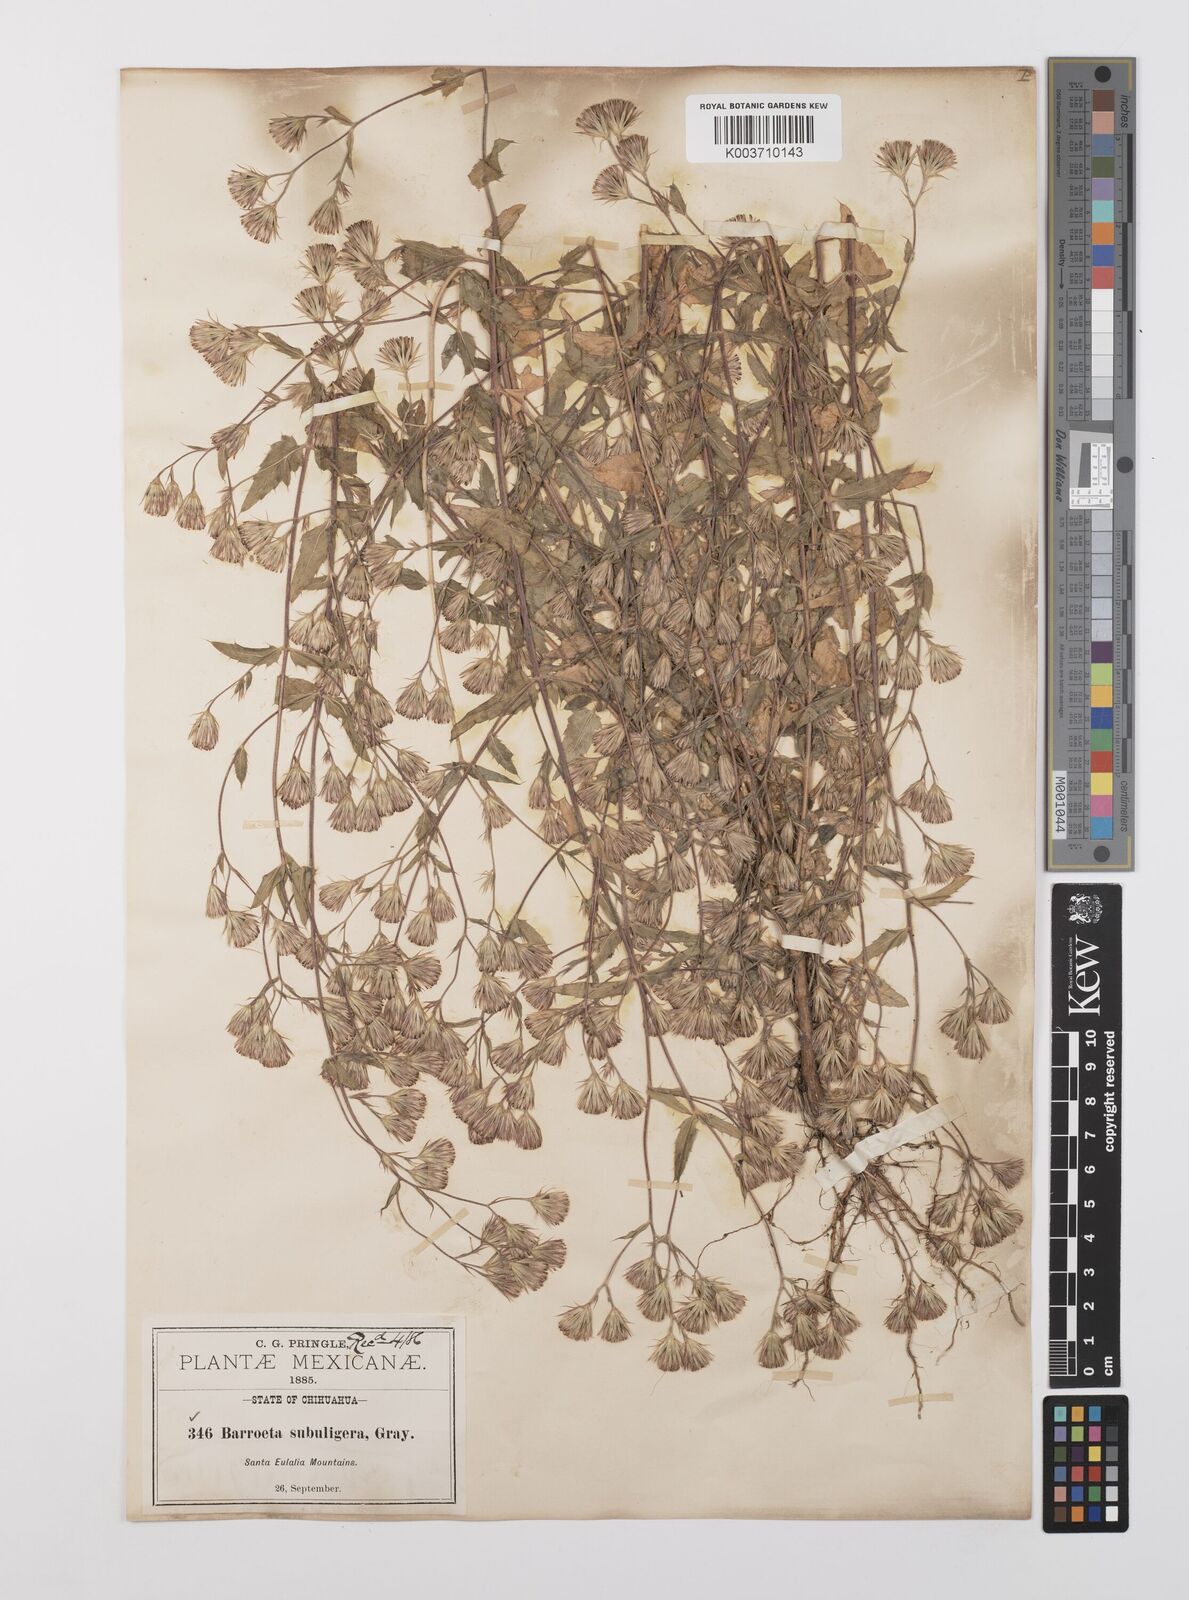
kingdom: Plantae
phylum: Tracheophyta
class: Magnoliopsida
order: Asterales
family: Asteraceae
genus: Brickellia
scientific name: Brickellia subuligera
